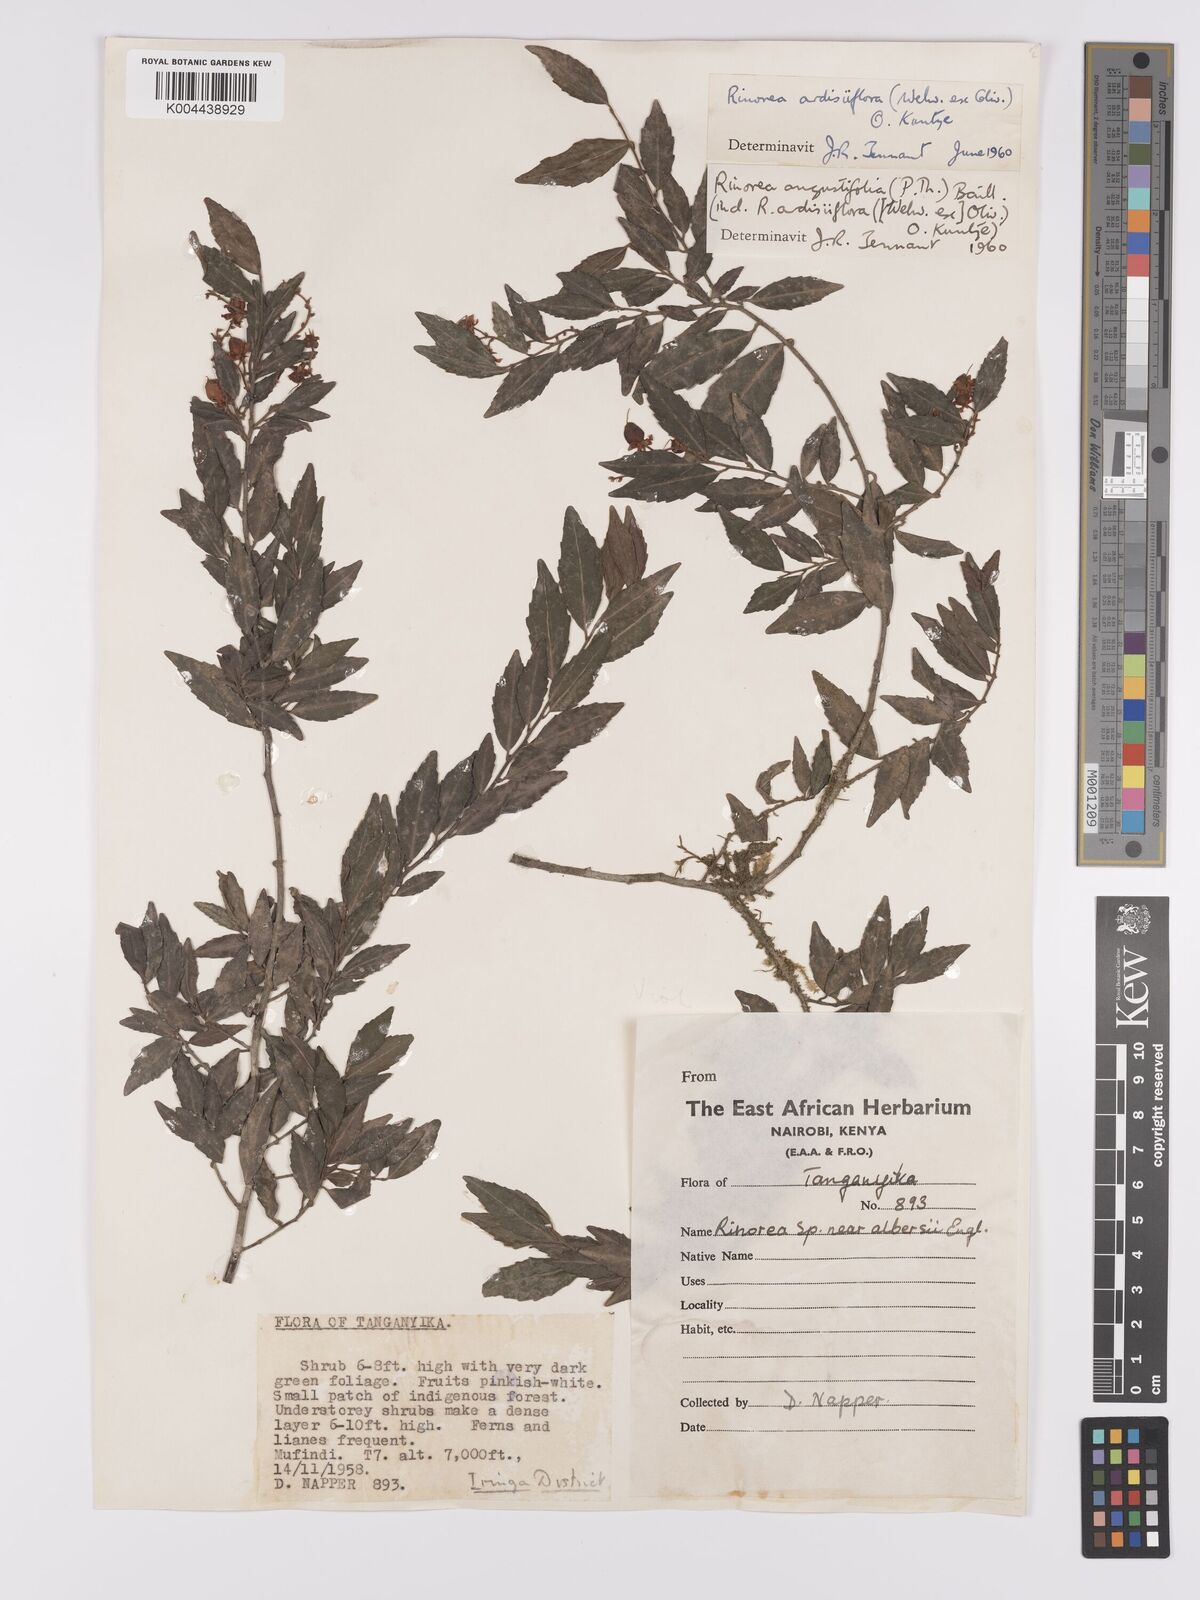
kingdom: Plantae
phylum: Tracheophyta
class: Magnoliopsida
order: Malpighiales
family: Violaceae
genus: Rinorea
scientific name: Rinorea angustifolia
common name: White violet-bush
